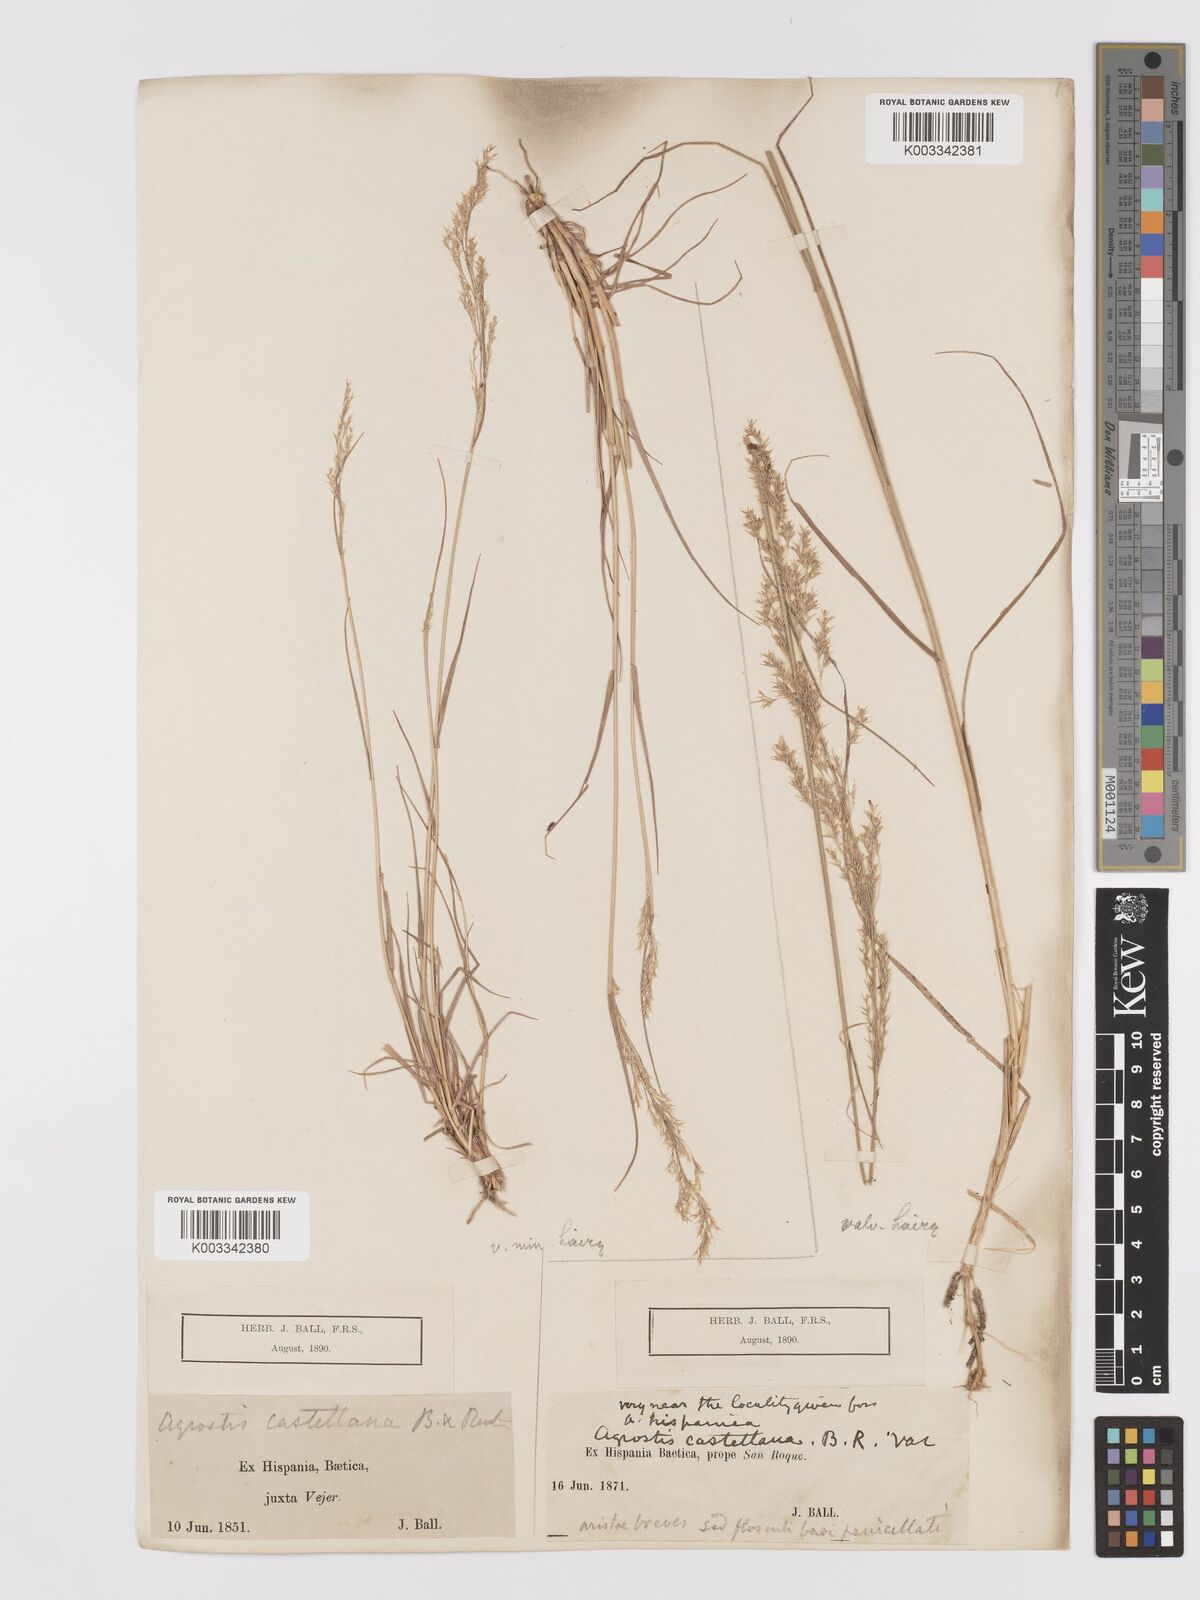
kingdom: Plantae
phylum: Tracheophyta
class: Liliopsida
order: Poales
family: Poaceae
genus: Agrostis
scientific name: Agrostis castriferrei
